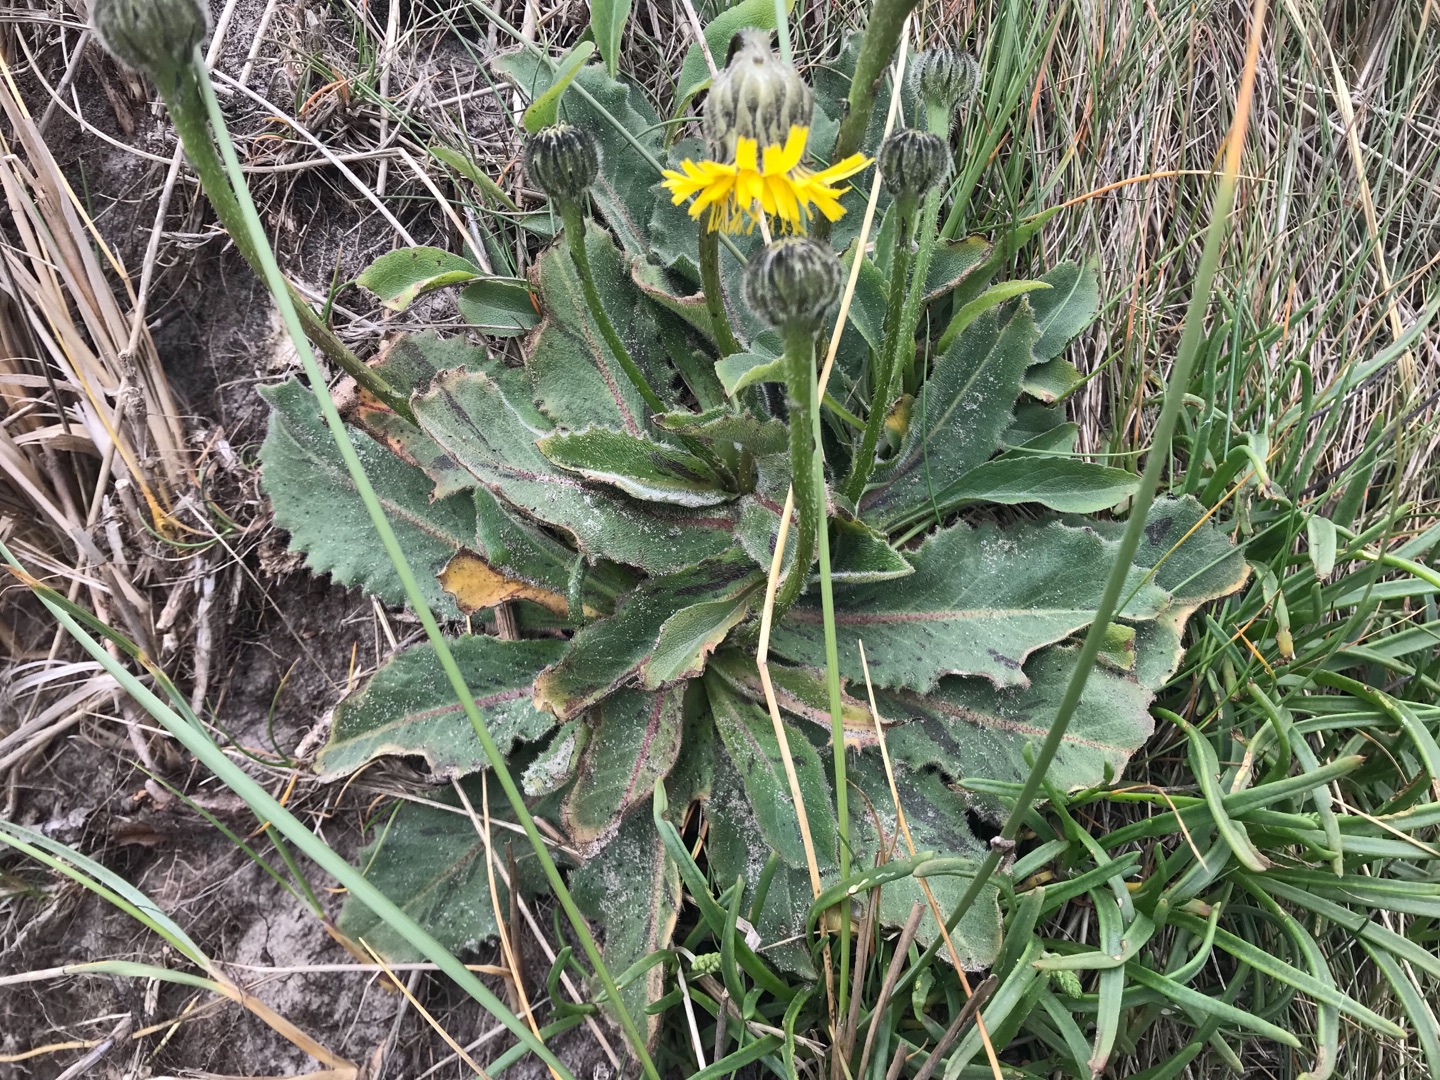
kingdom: Plantae
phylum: Tracheophyta
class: Magnoliopsida
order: Asterales
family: Asteraceae
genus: Trommsdorffia
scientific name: Trommsdorffia maculata
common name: Plettet kongepen
